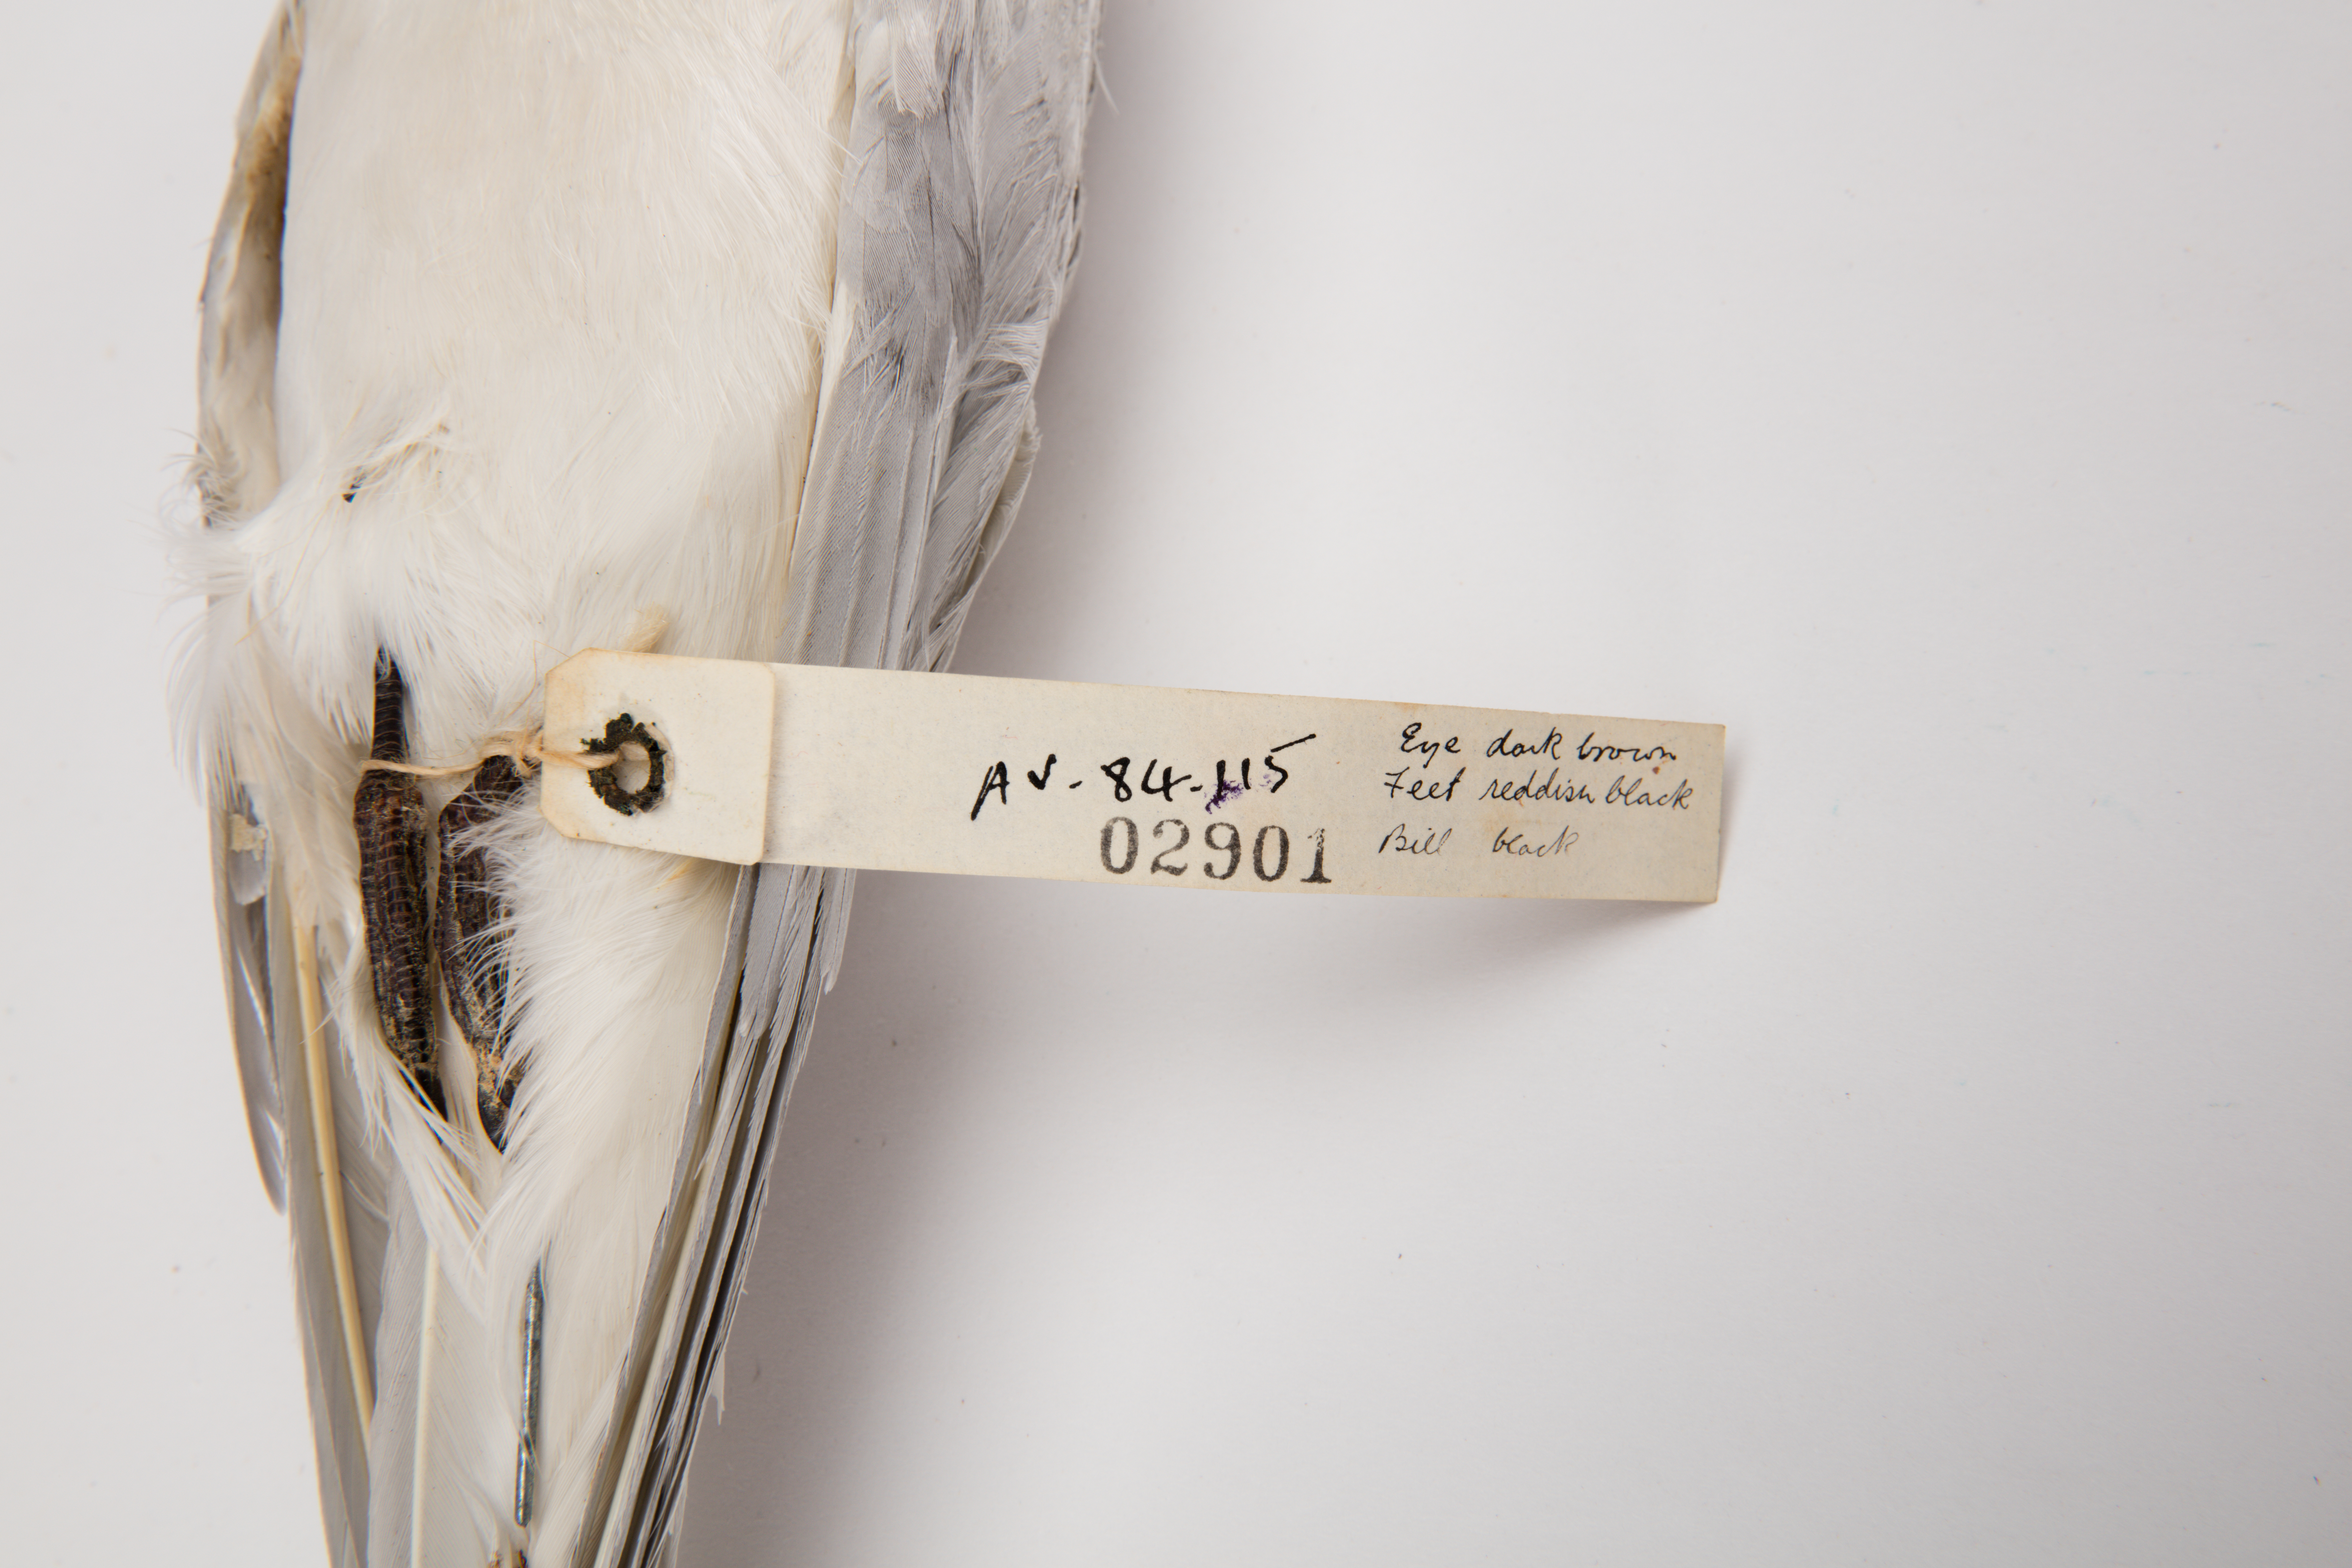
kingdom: Animalia
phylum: Chordata
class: Aves
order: Charadriiformes
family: Laridae
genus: Sterna
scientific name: Sterna striata
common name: White-fronted tern
